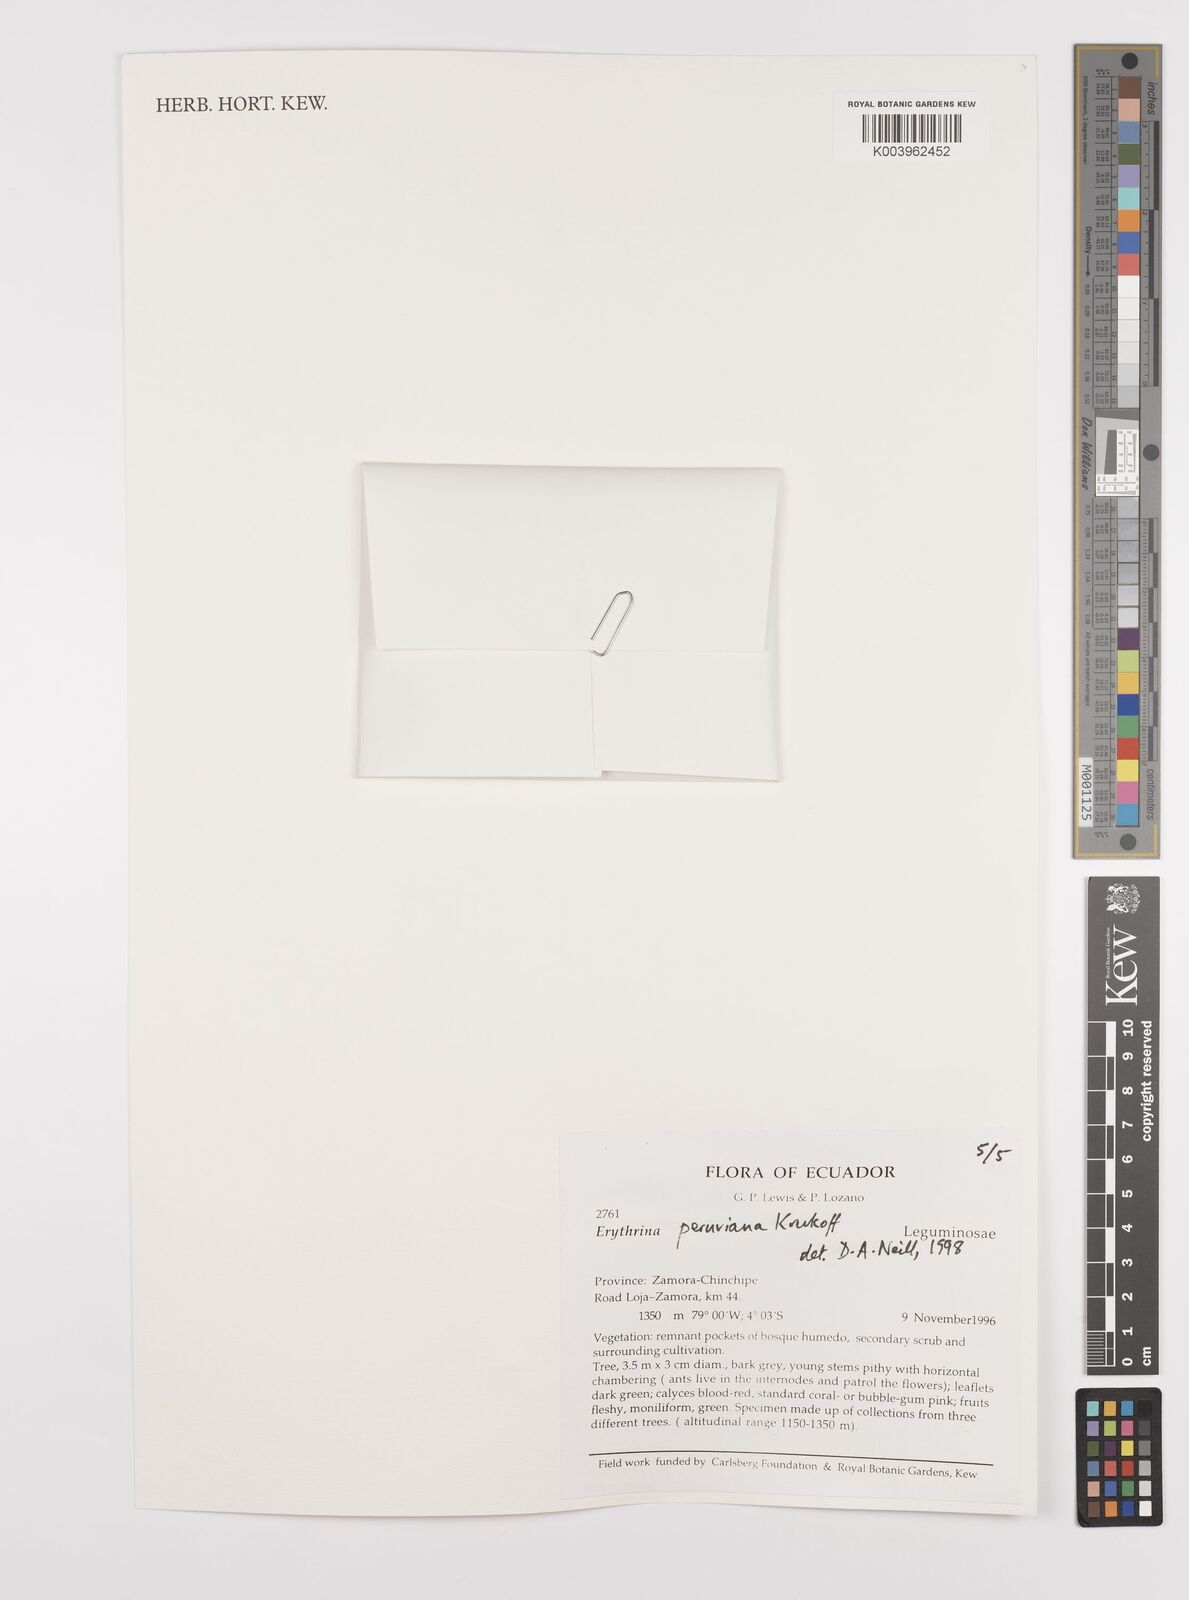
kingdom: Plantae
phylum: Tracheophyta
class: Magnoliopsida
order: Fabales
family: Fabaceae
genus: Erythrina
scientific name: Erythrina peruviana
